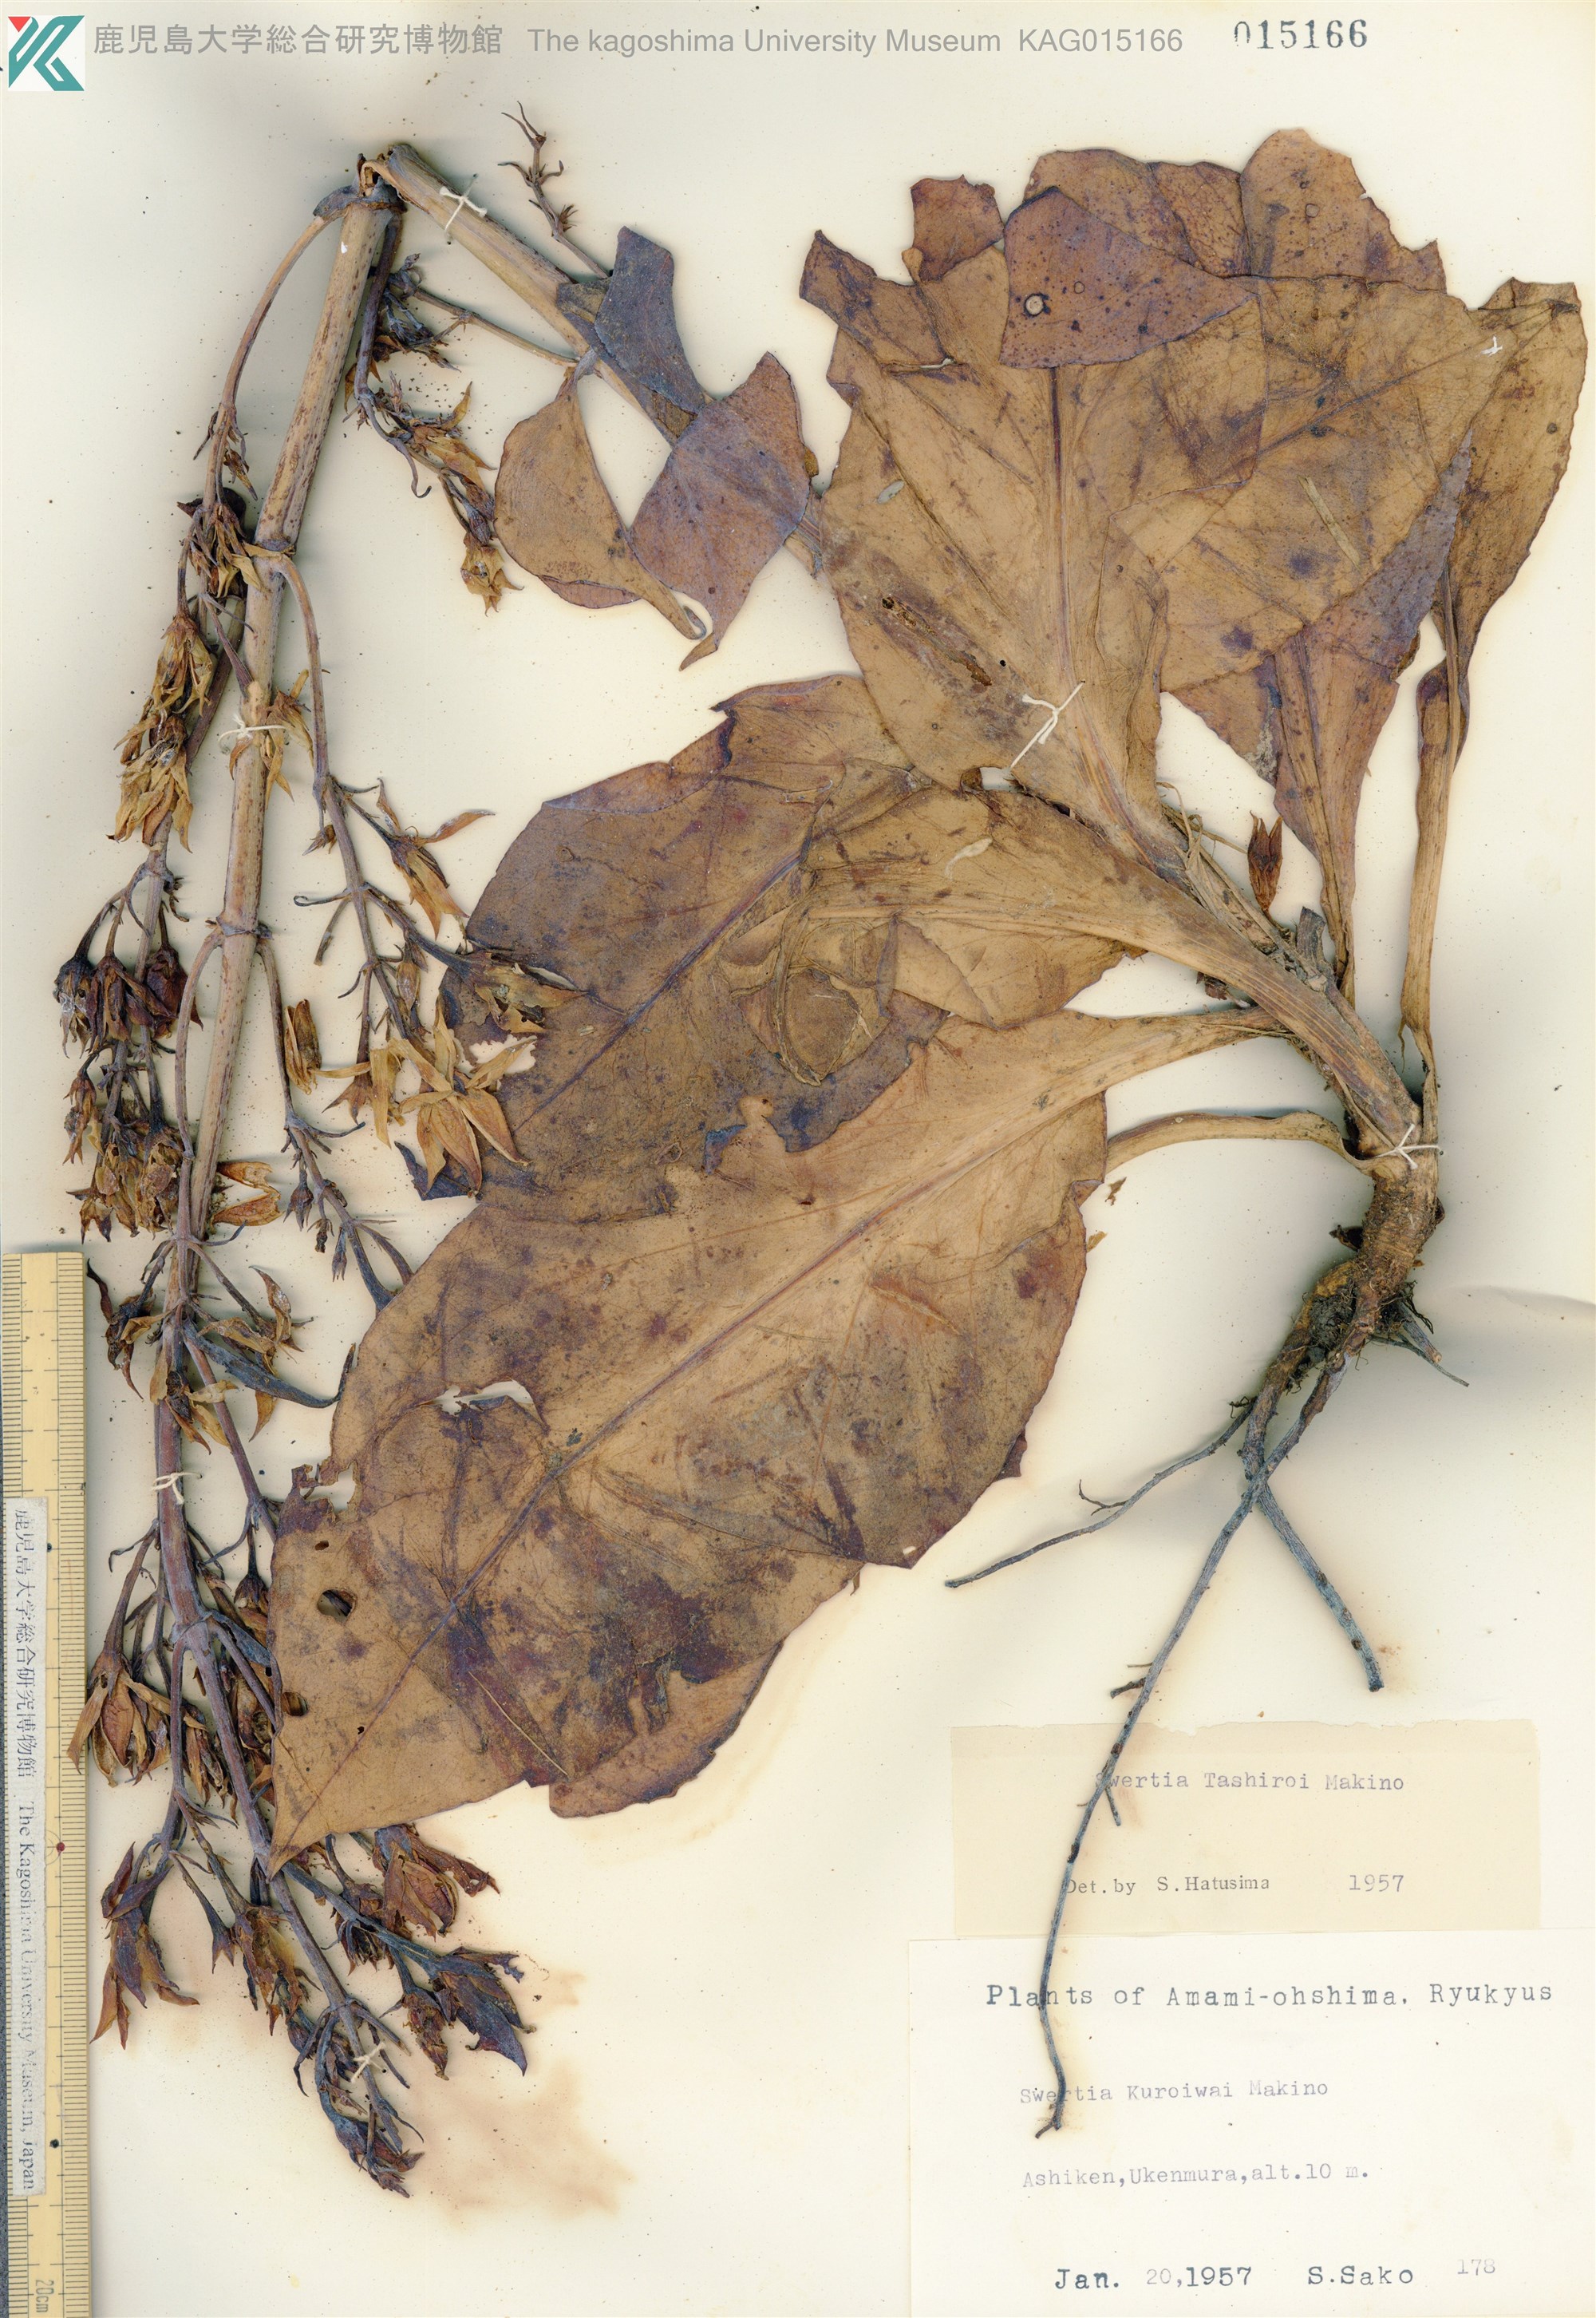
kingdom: Plantae
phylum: Tracheophyta
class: Magnoliopsida
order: Gentianales
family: Gentianaceae
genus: Swertia
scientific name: Swertia tashiroi
